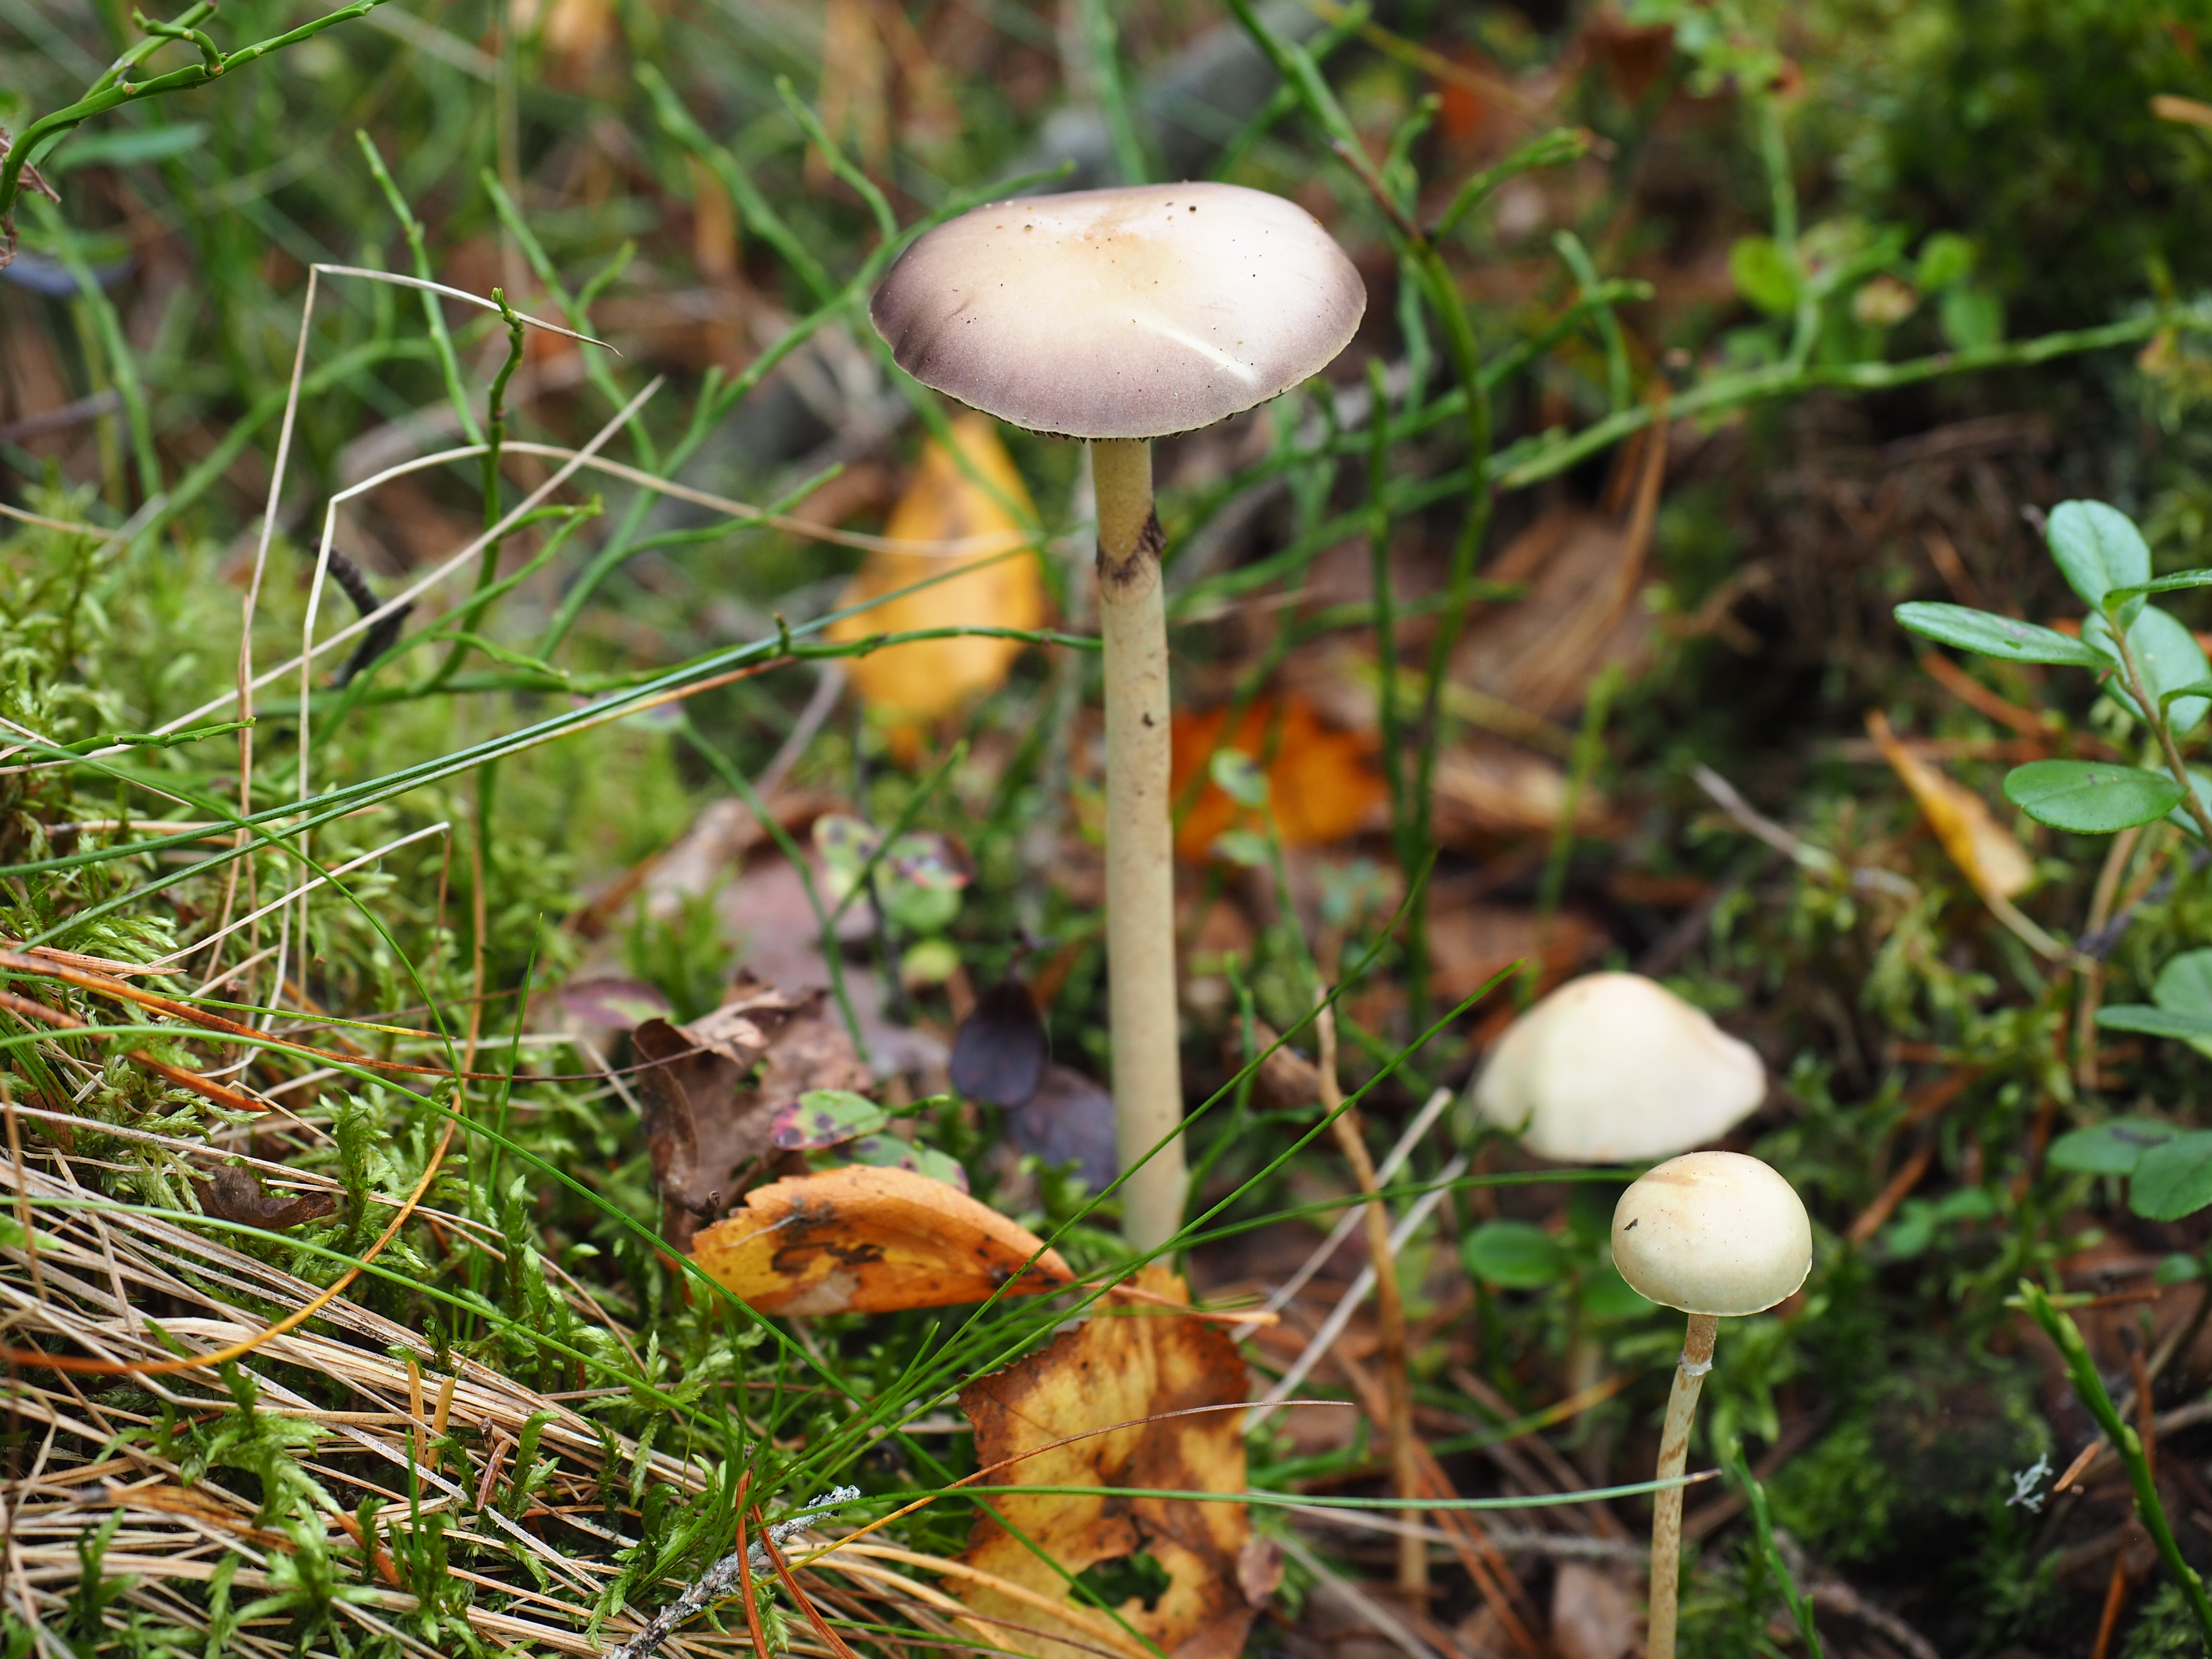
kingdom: Fungi
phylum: Basidiomycota
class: Agaricomycetes
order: Agaricales
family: Strophariaceae
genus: Protostropharia
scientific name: Protostropharia alcis
